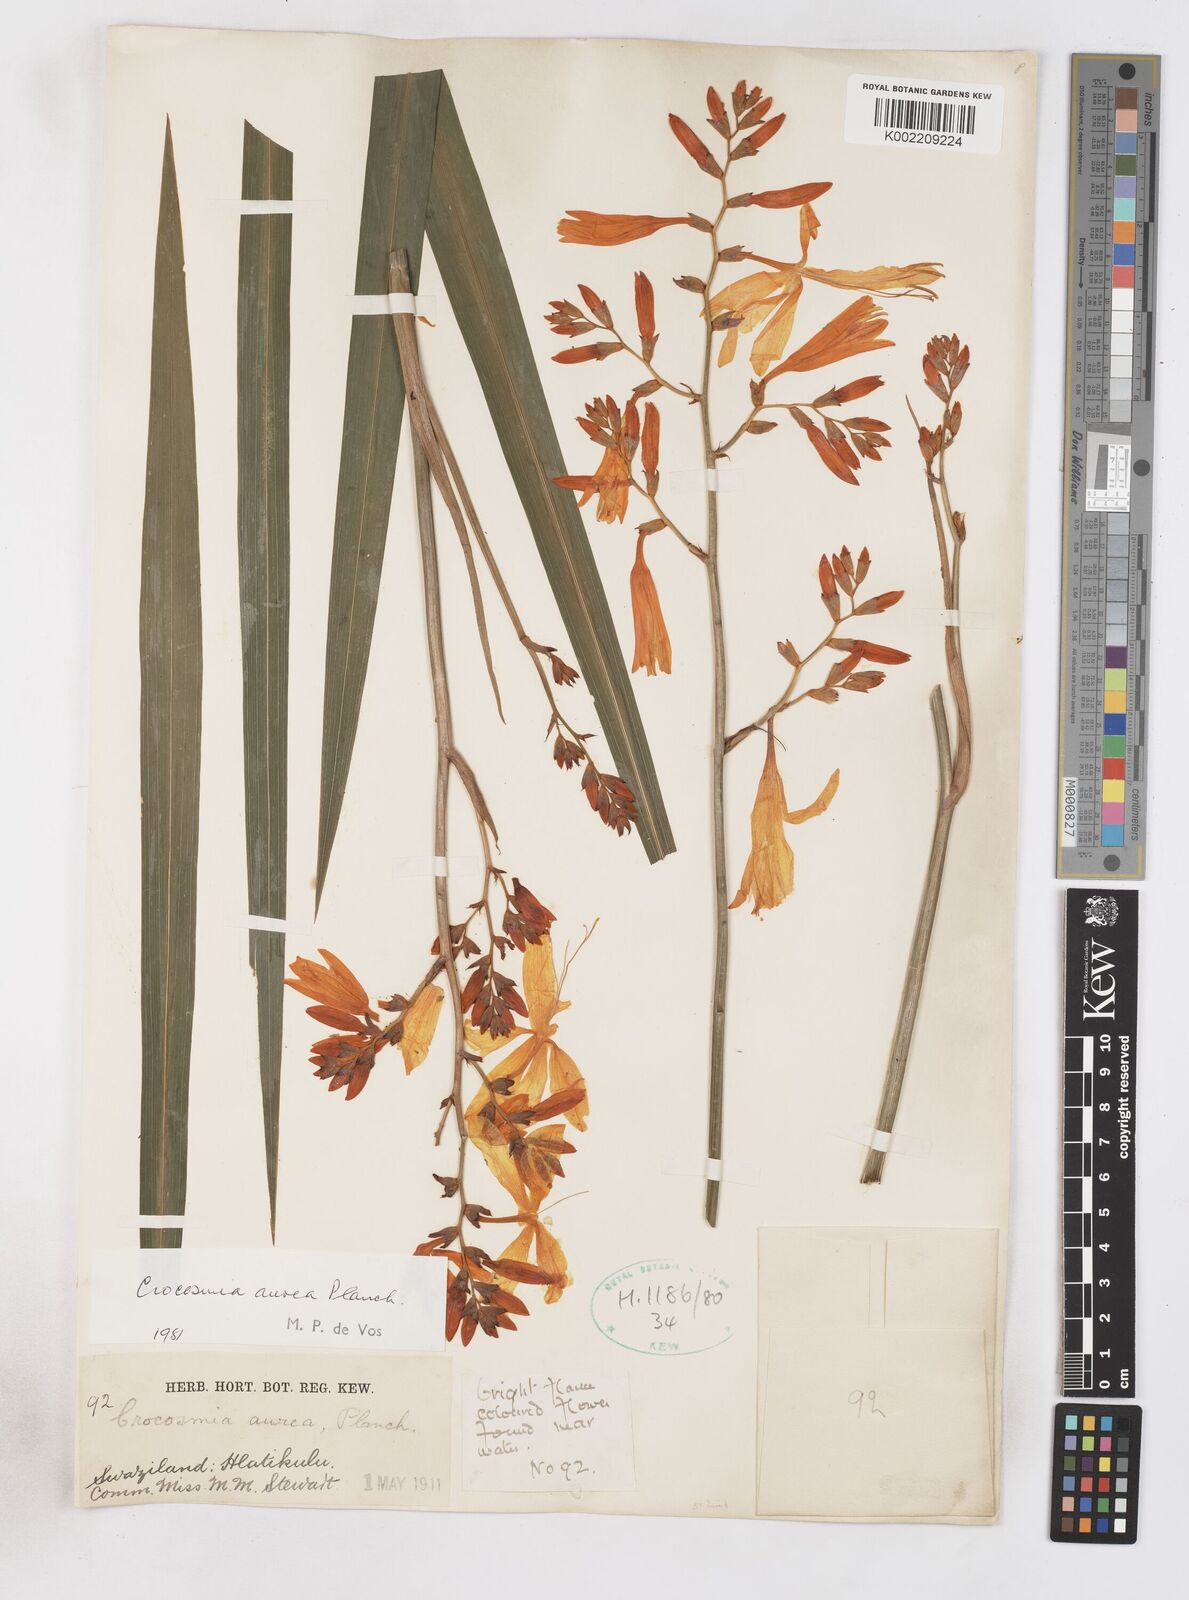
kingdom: Plantae
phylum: Tracheophyta
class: Liliopsida
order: Asparagales
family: Iridaceae
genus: Crocosmia
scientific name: Crocosmia aurea
